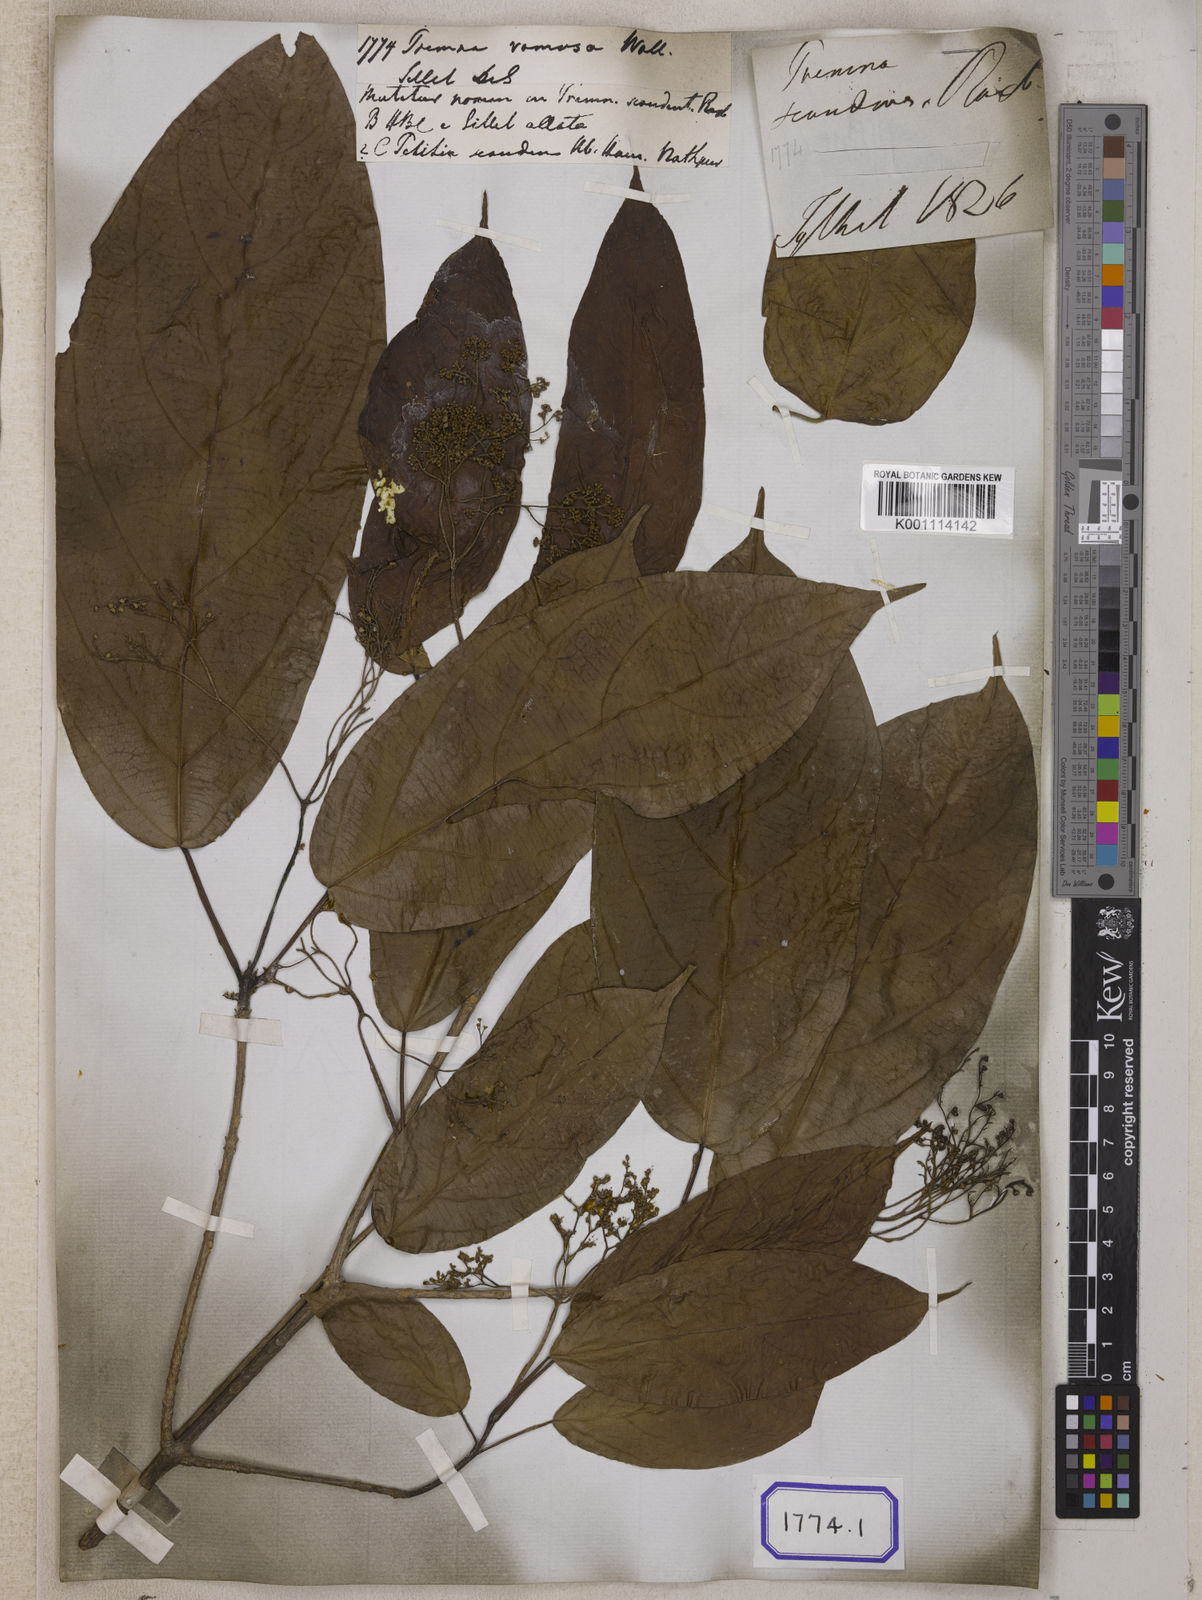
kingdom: Plantae
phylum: Tracheophyta
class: Magnoliopsida
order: Lamiales
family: Lamiaceae
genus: Premna
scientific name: Premna scandens
